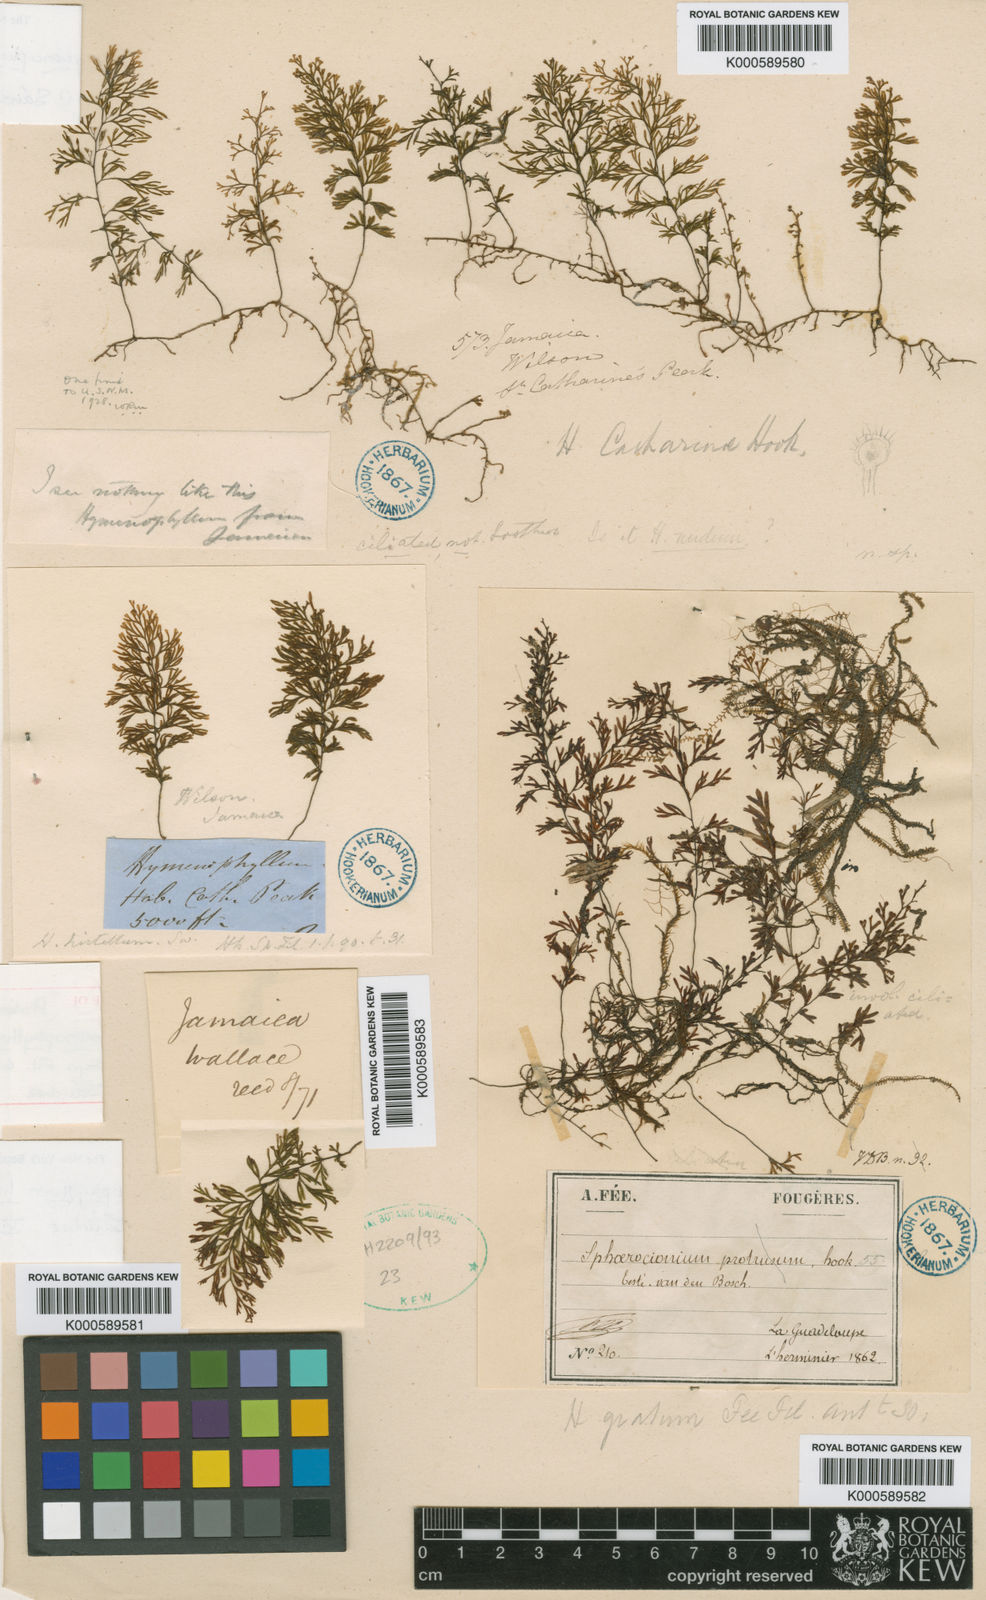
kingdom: Plantae
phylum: Tracheophyta
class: Polypodiopsida
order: Hymenophyllales
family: Hymenophyllaceae
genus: Hymenophyllum
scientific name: Hymenophyllum lineare
